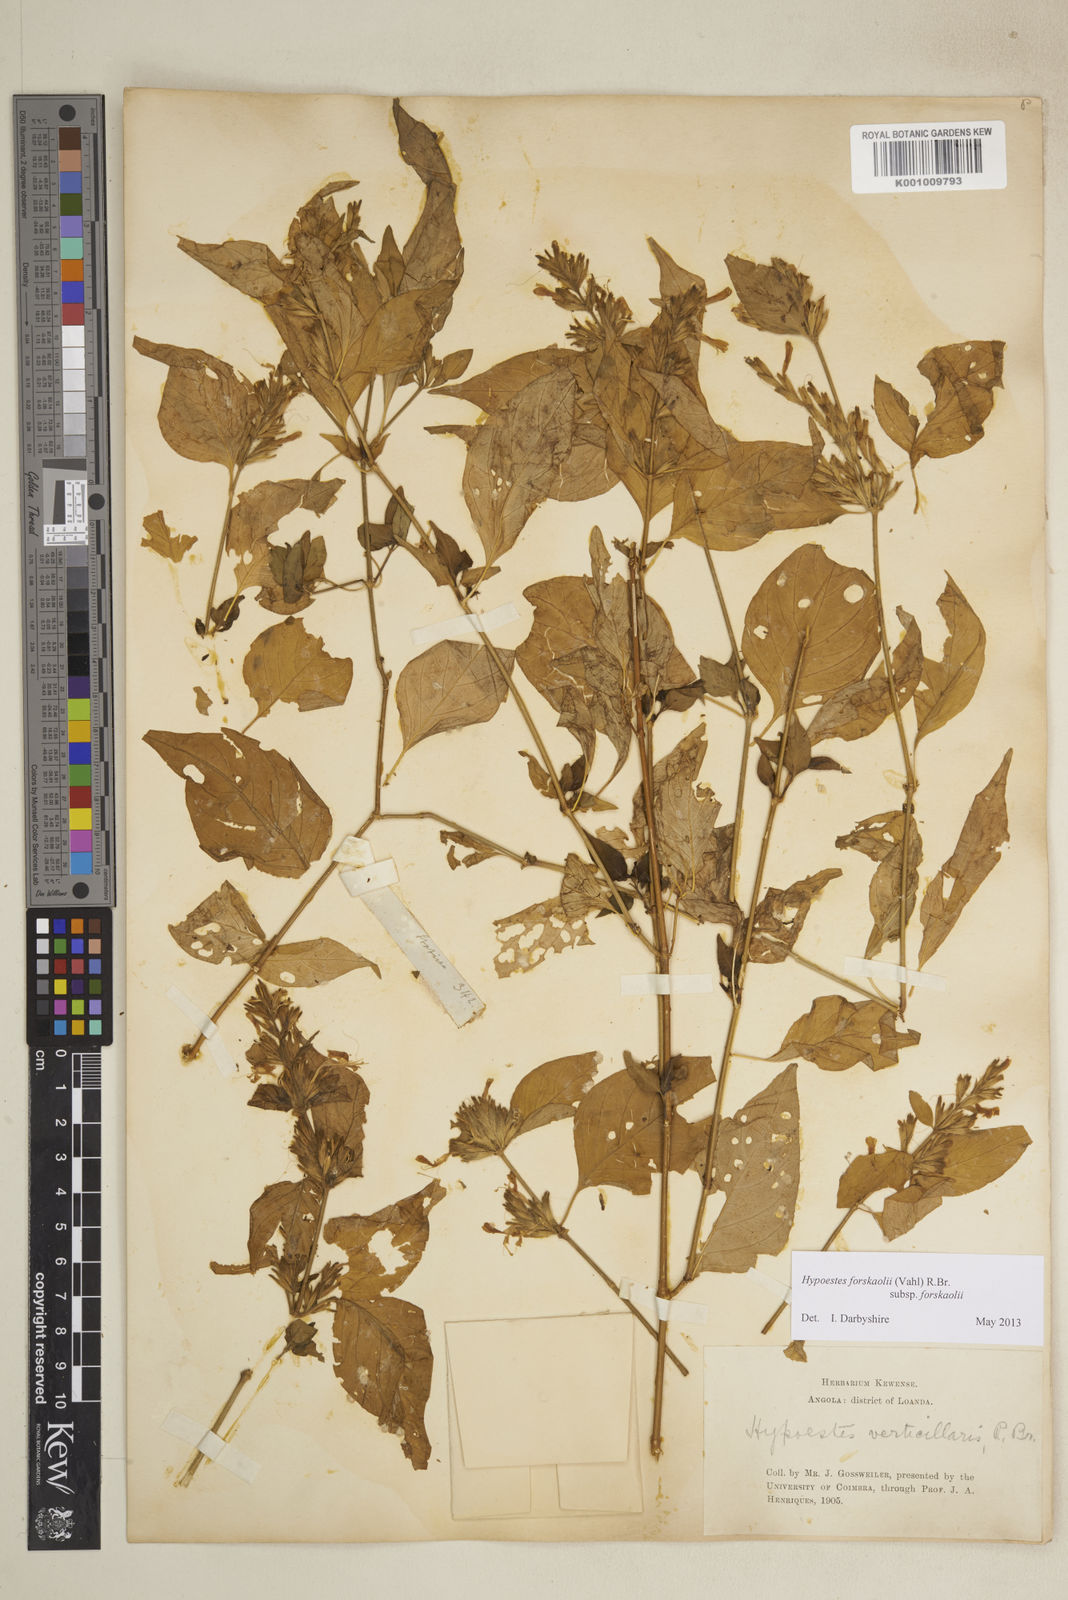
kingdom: Plantae
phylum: Tracheophyta
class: Magnoliopsida
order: Lamiales
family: Acanthaceae
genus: Hypoestes
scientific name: Hypoestes forskaolii
